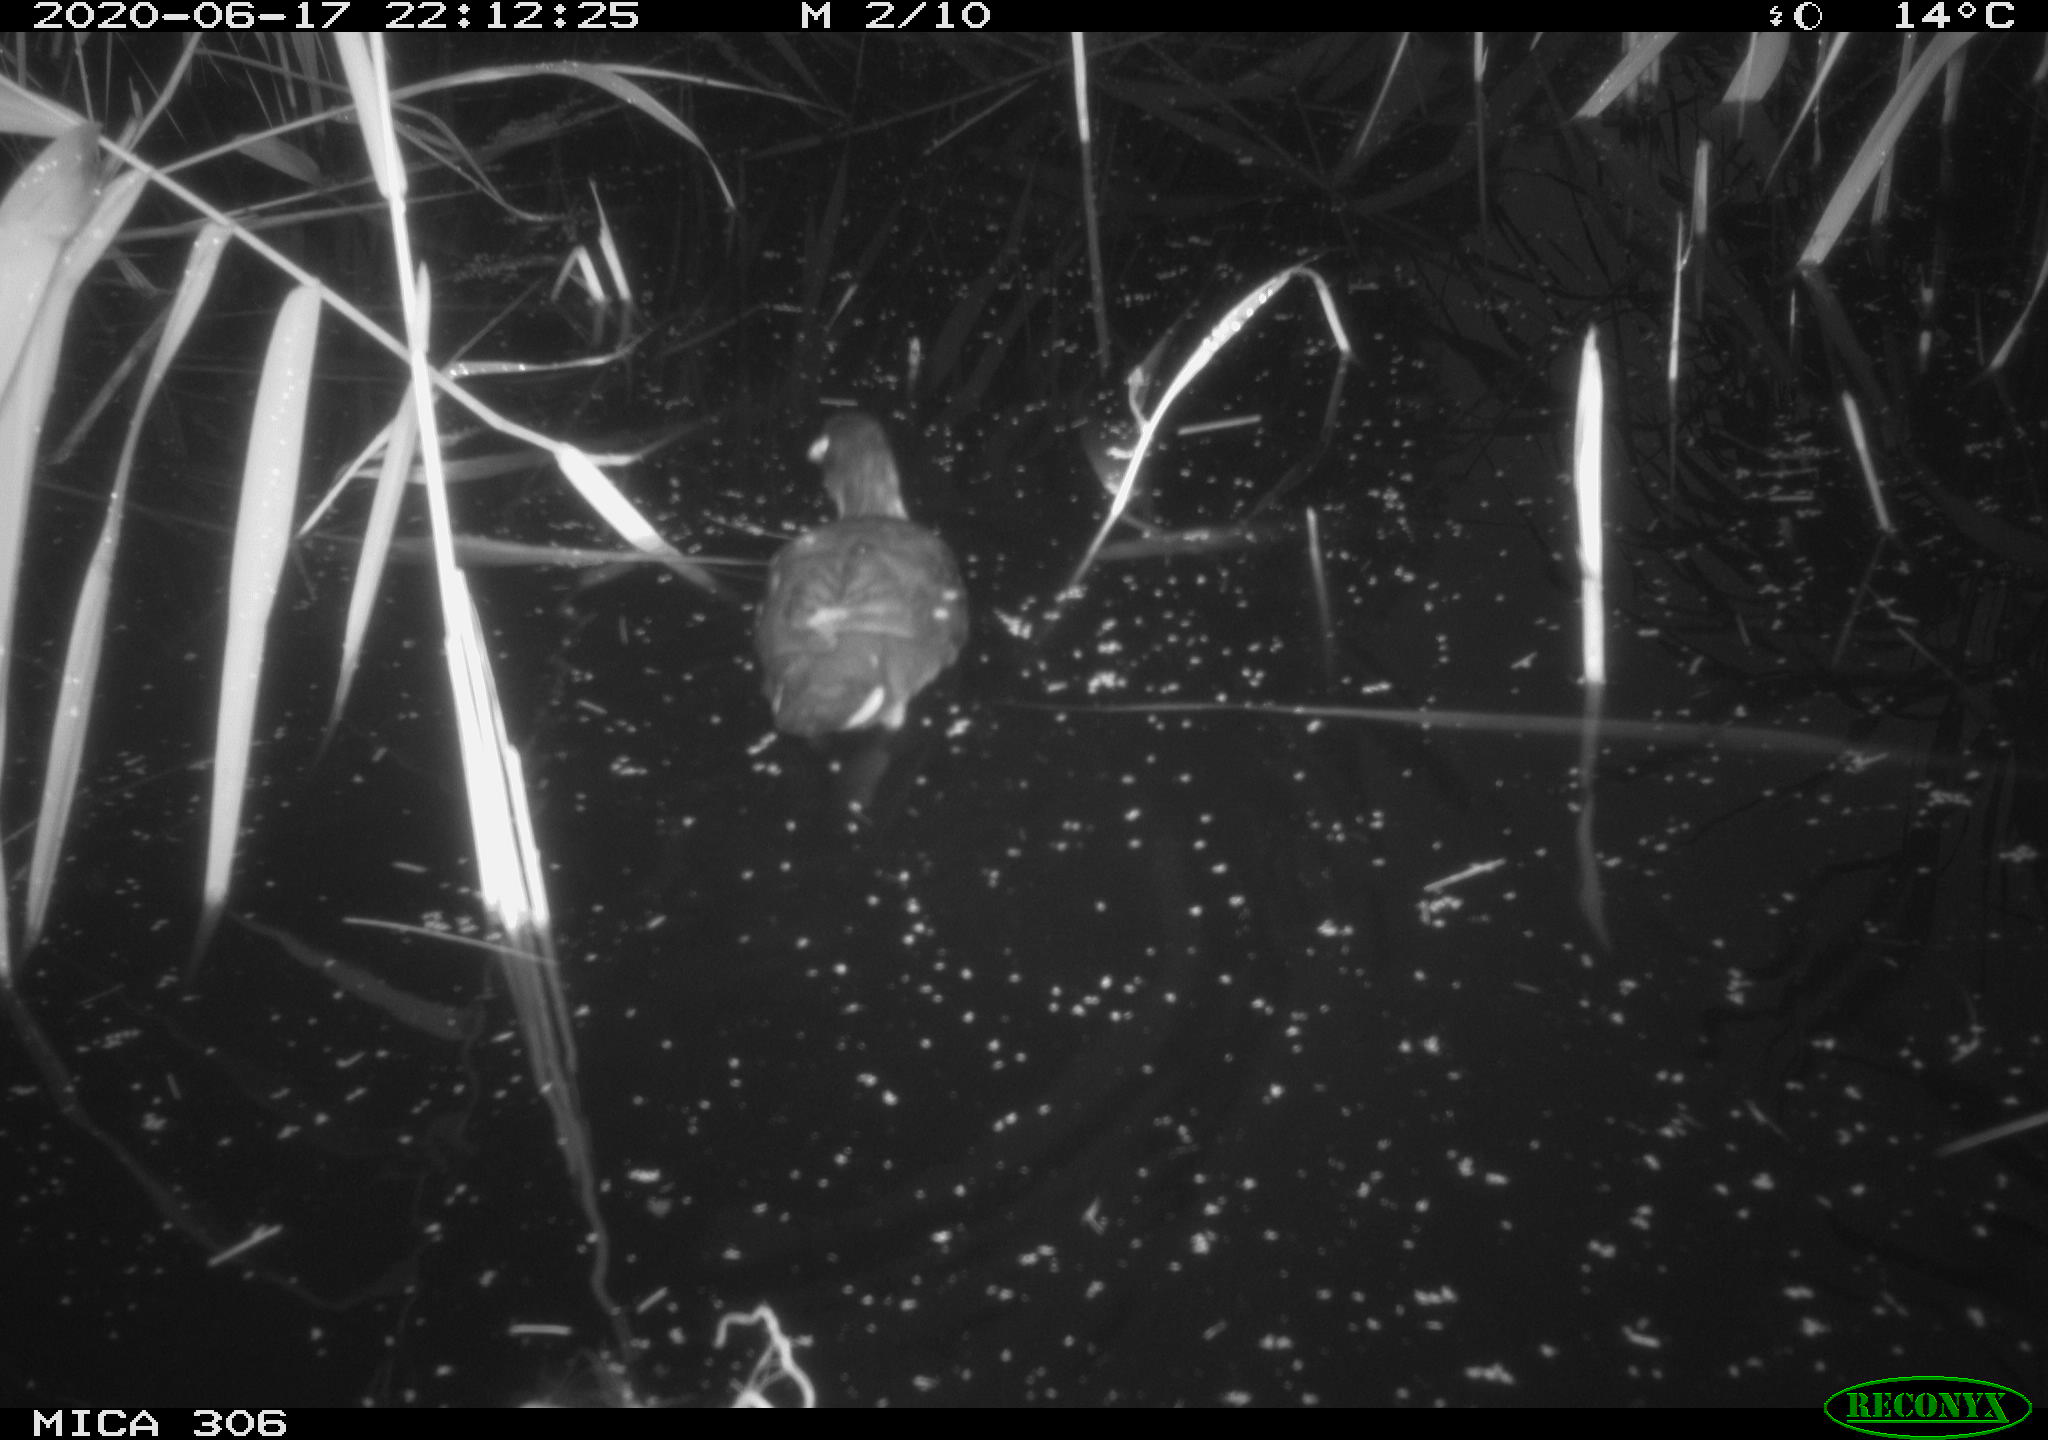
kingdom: Animalia
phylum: Chordata
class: Aves
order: Gruiformes
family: Rallidae
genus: Gallinula
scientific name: Gallinula chloropus
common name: Common moorhen
